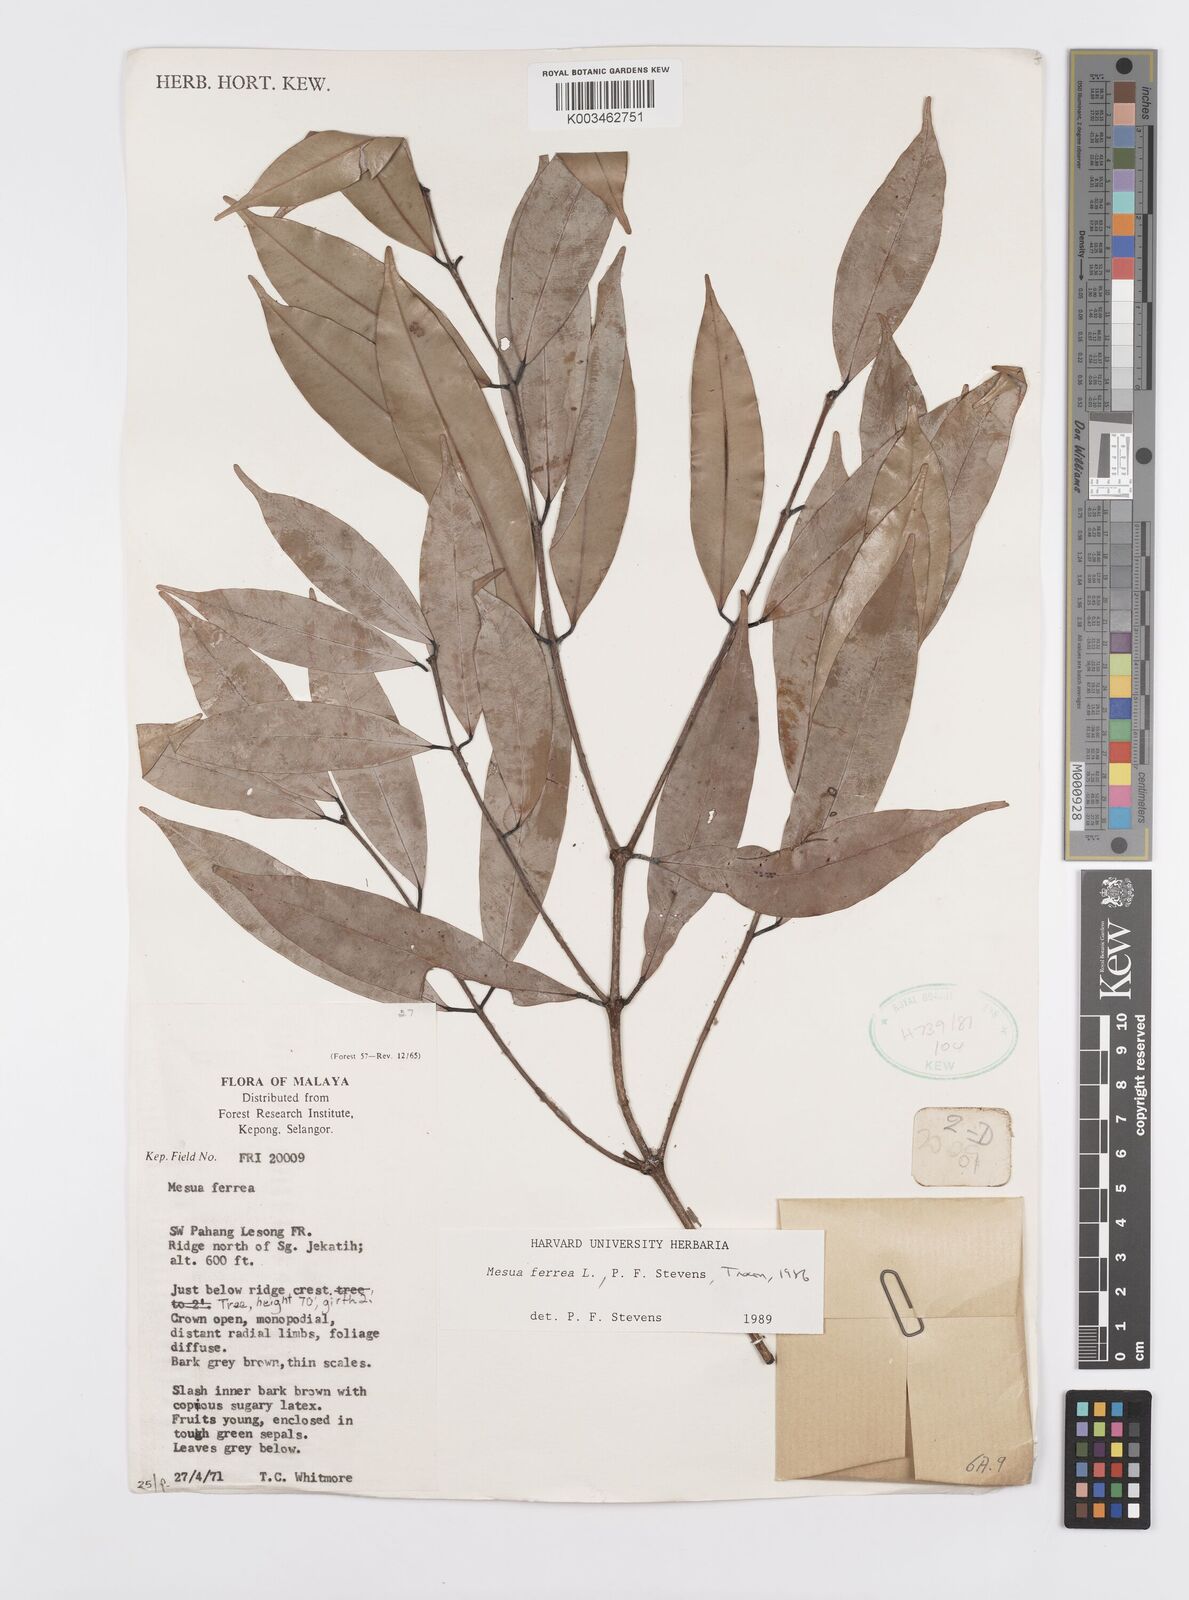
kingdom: Plantae
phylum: Tracheophyta
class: Magnoliopsida
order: Malpighiales
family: Calophyllaceae
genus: Mesua
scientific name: Mesua ferrea
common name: Mesua
